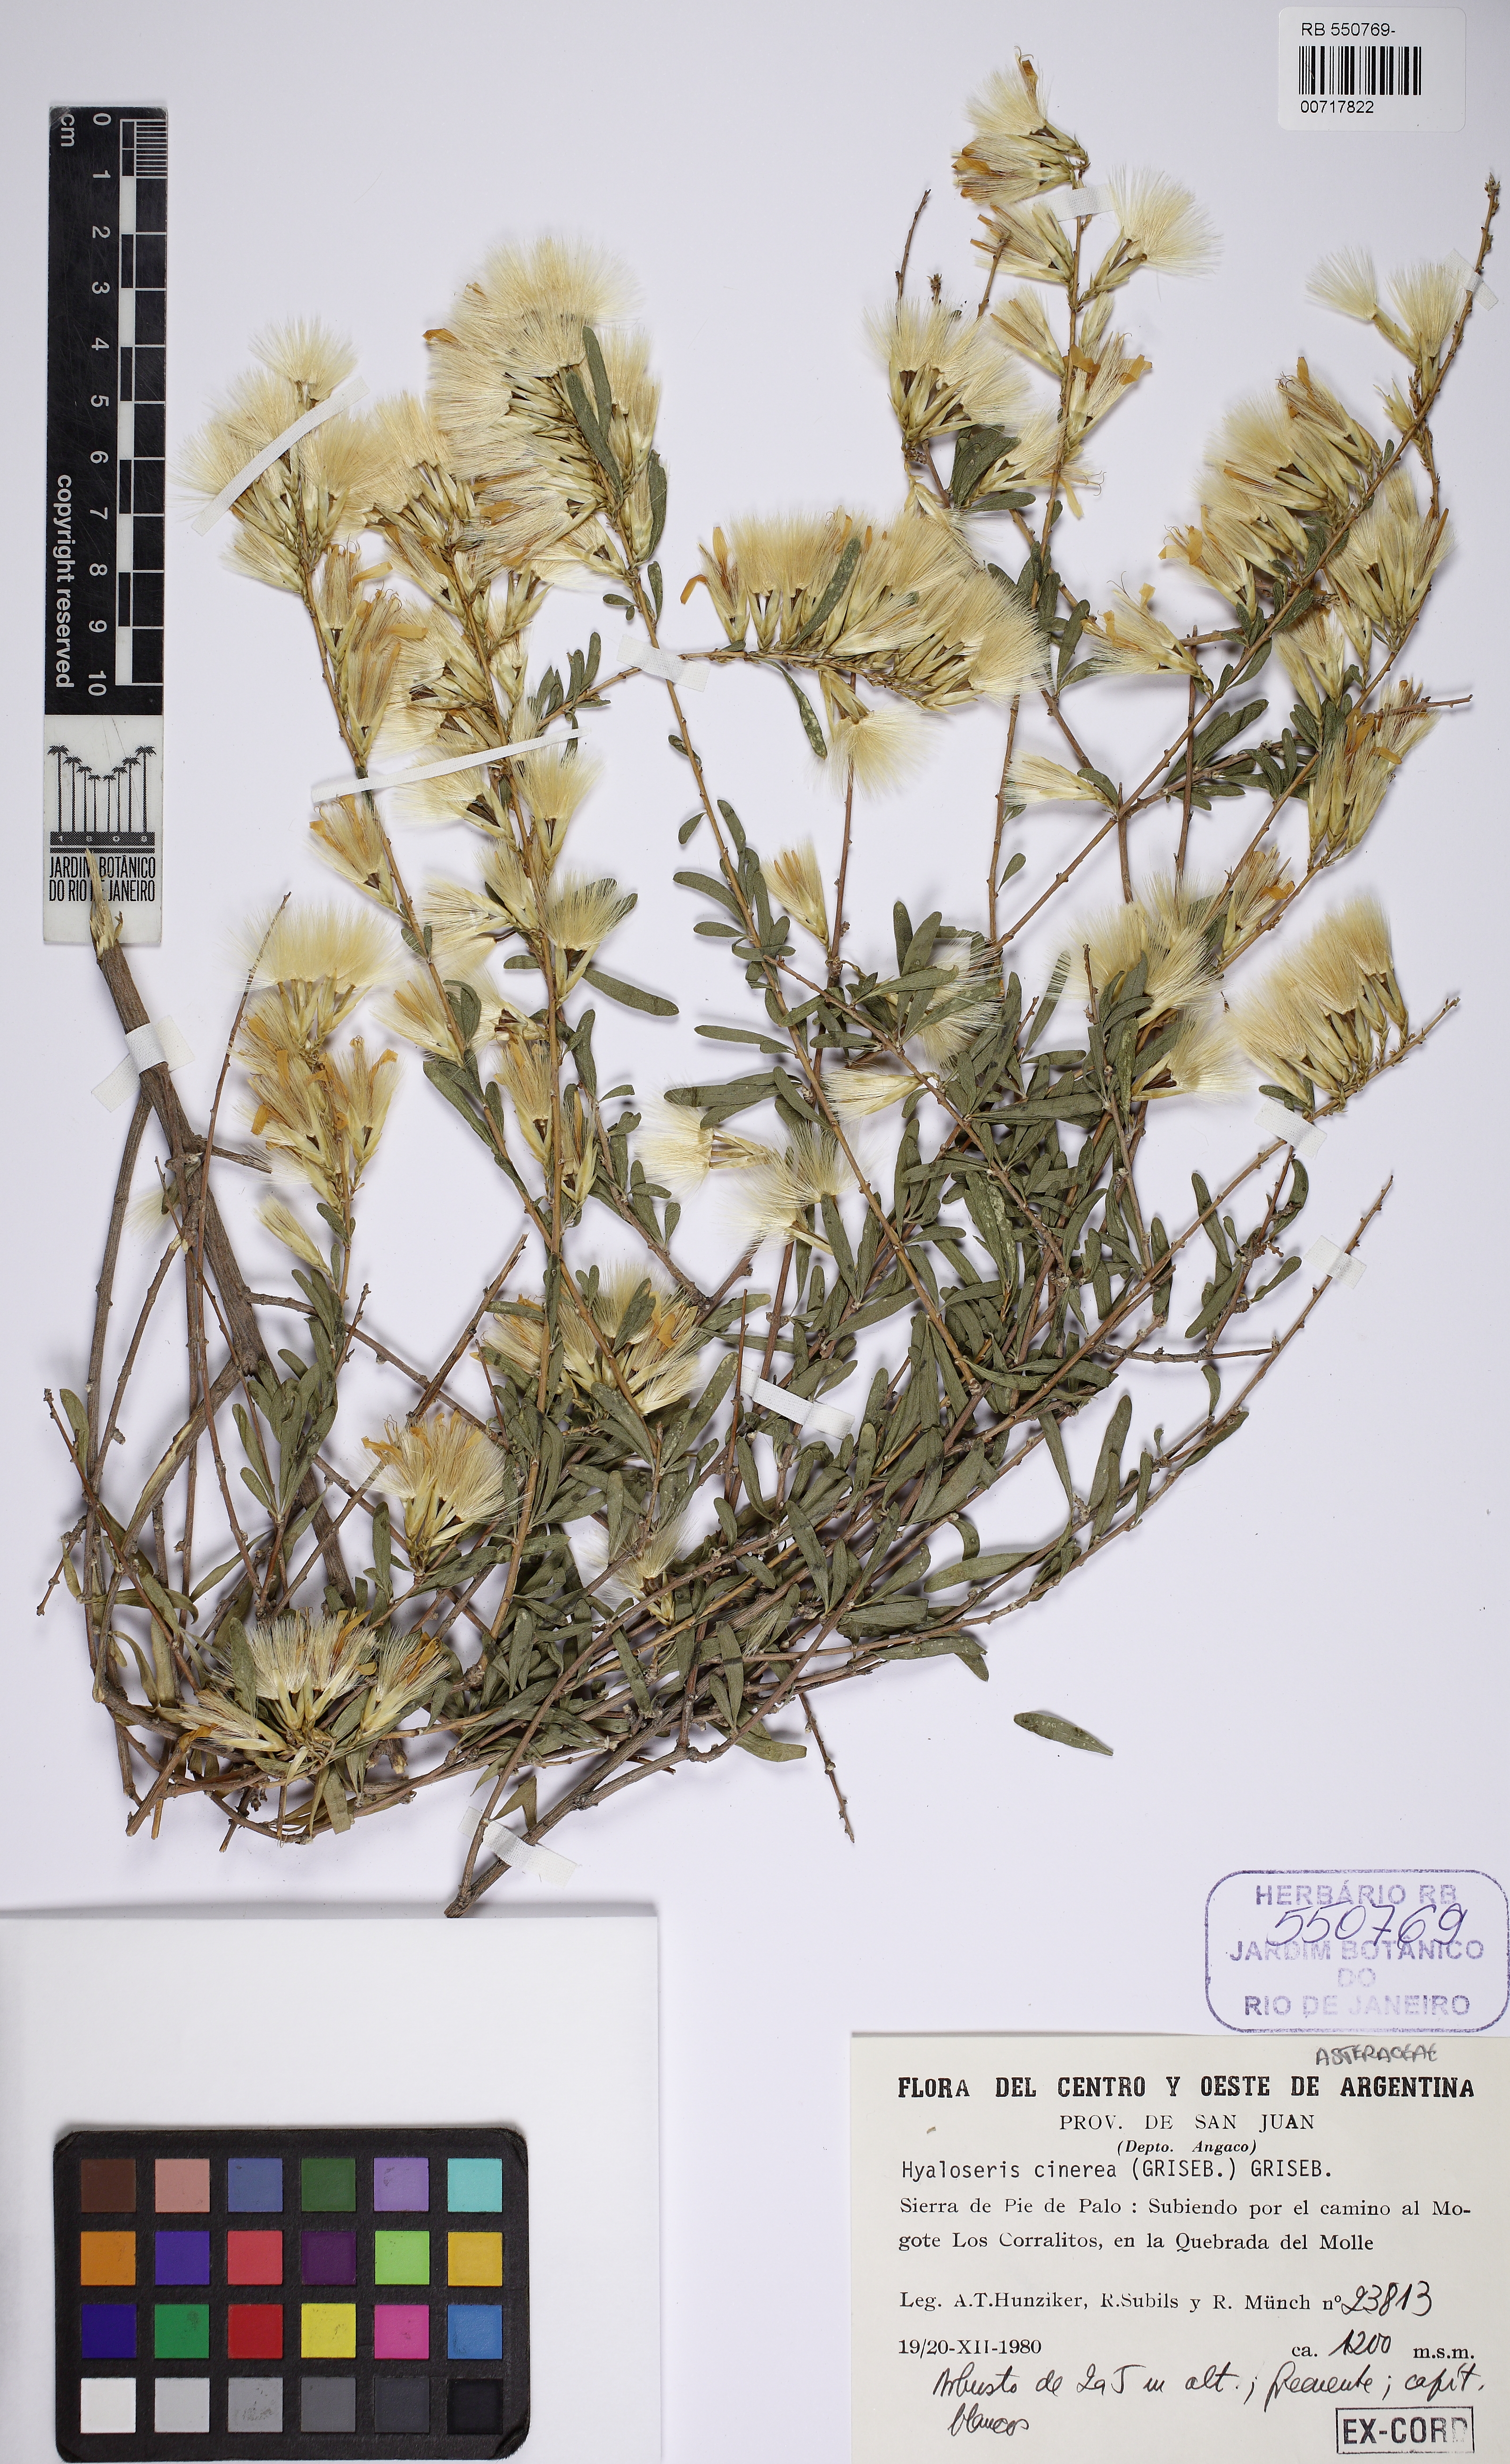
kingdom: Plantae
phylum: Tracheophyta
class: Magnoliopsida
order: Asterales
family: Asteraceae
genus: Hyaloseris
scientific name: Hyaloseris cinerea
